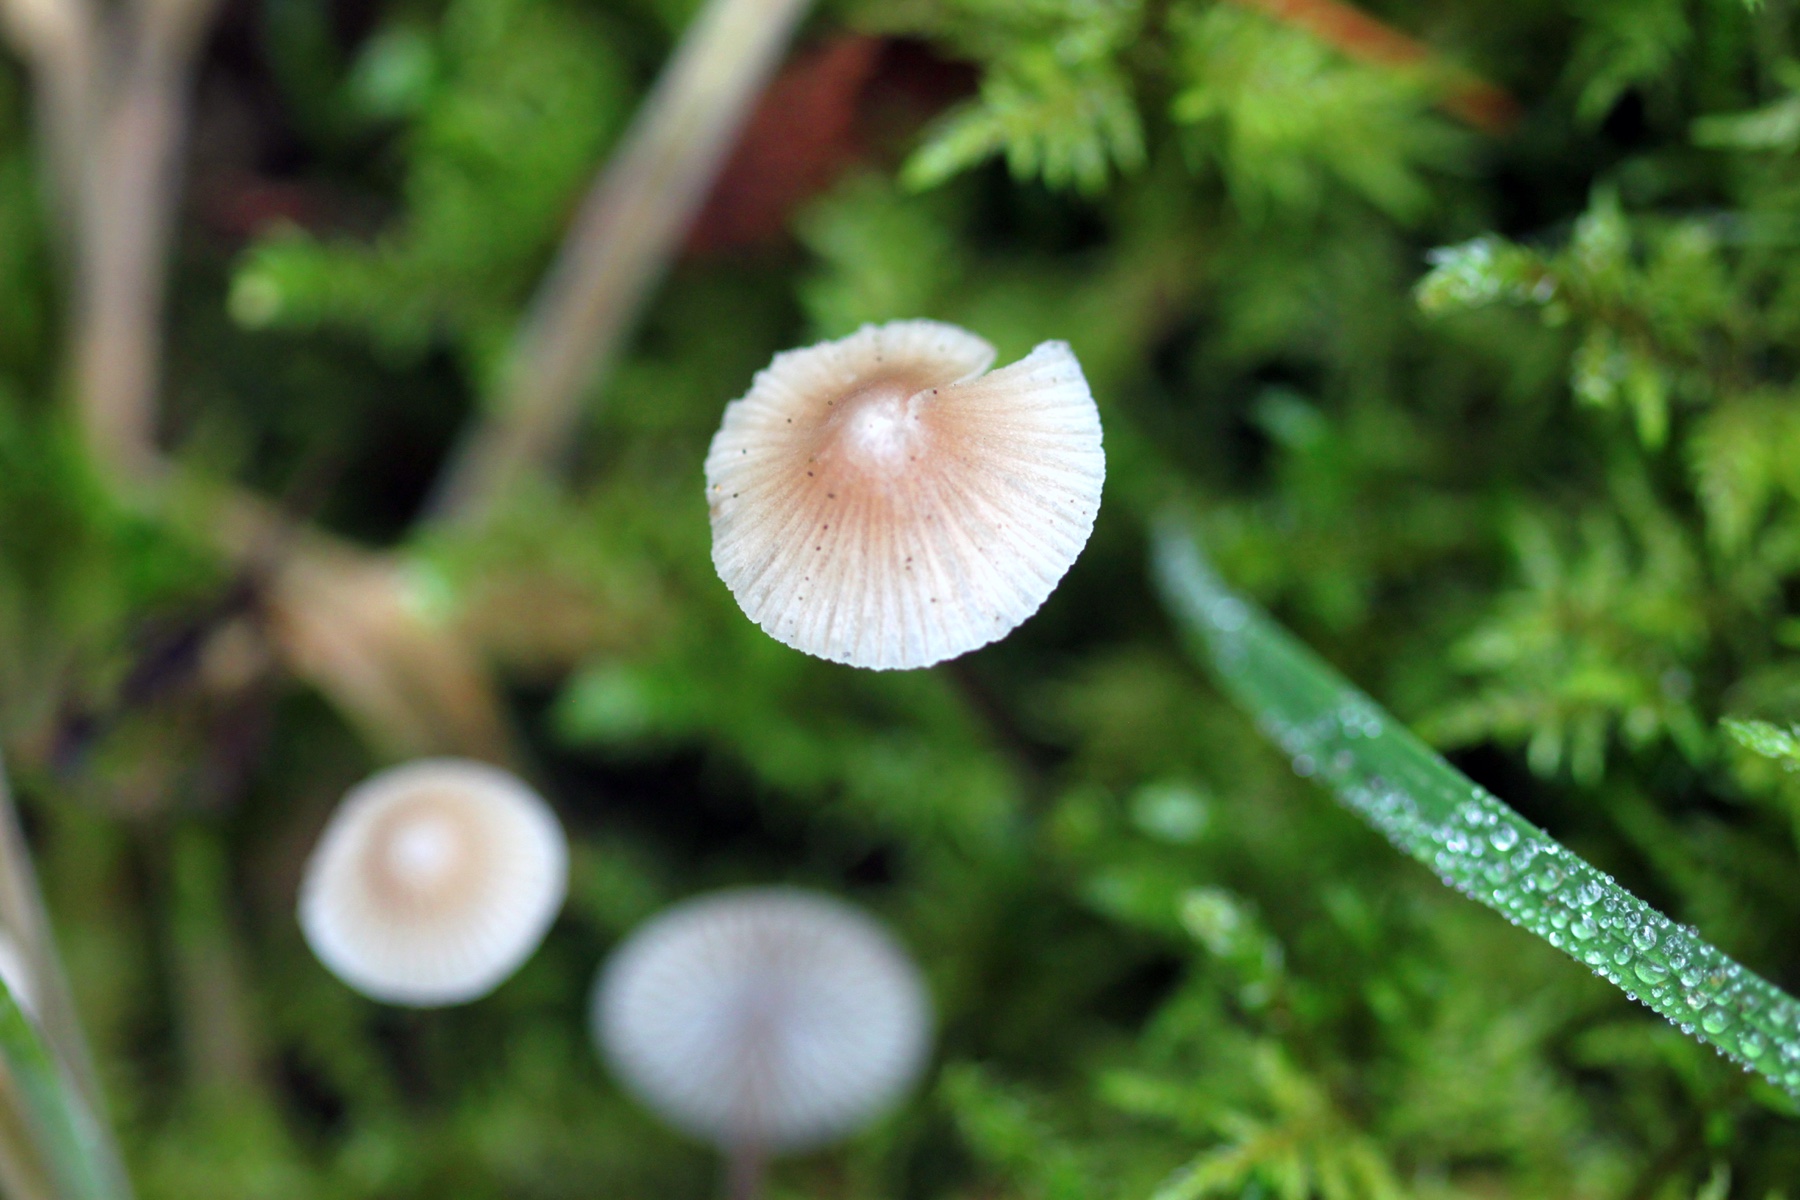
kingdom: Fungi
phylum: Basidiomycota
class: Agaricomycetes
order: Agaricales
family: Mycenaceae
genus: Mycena
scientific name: Mycena
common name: huesvamp
